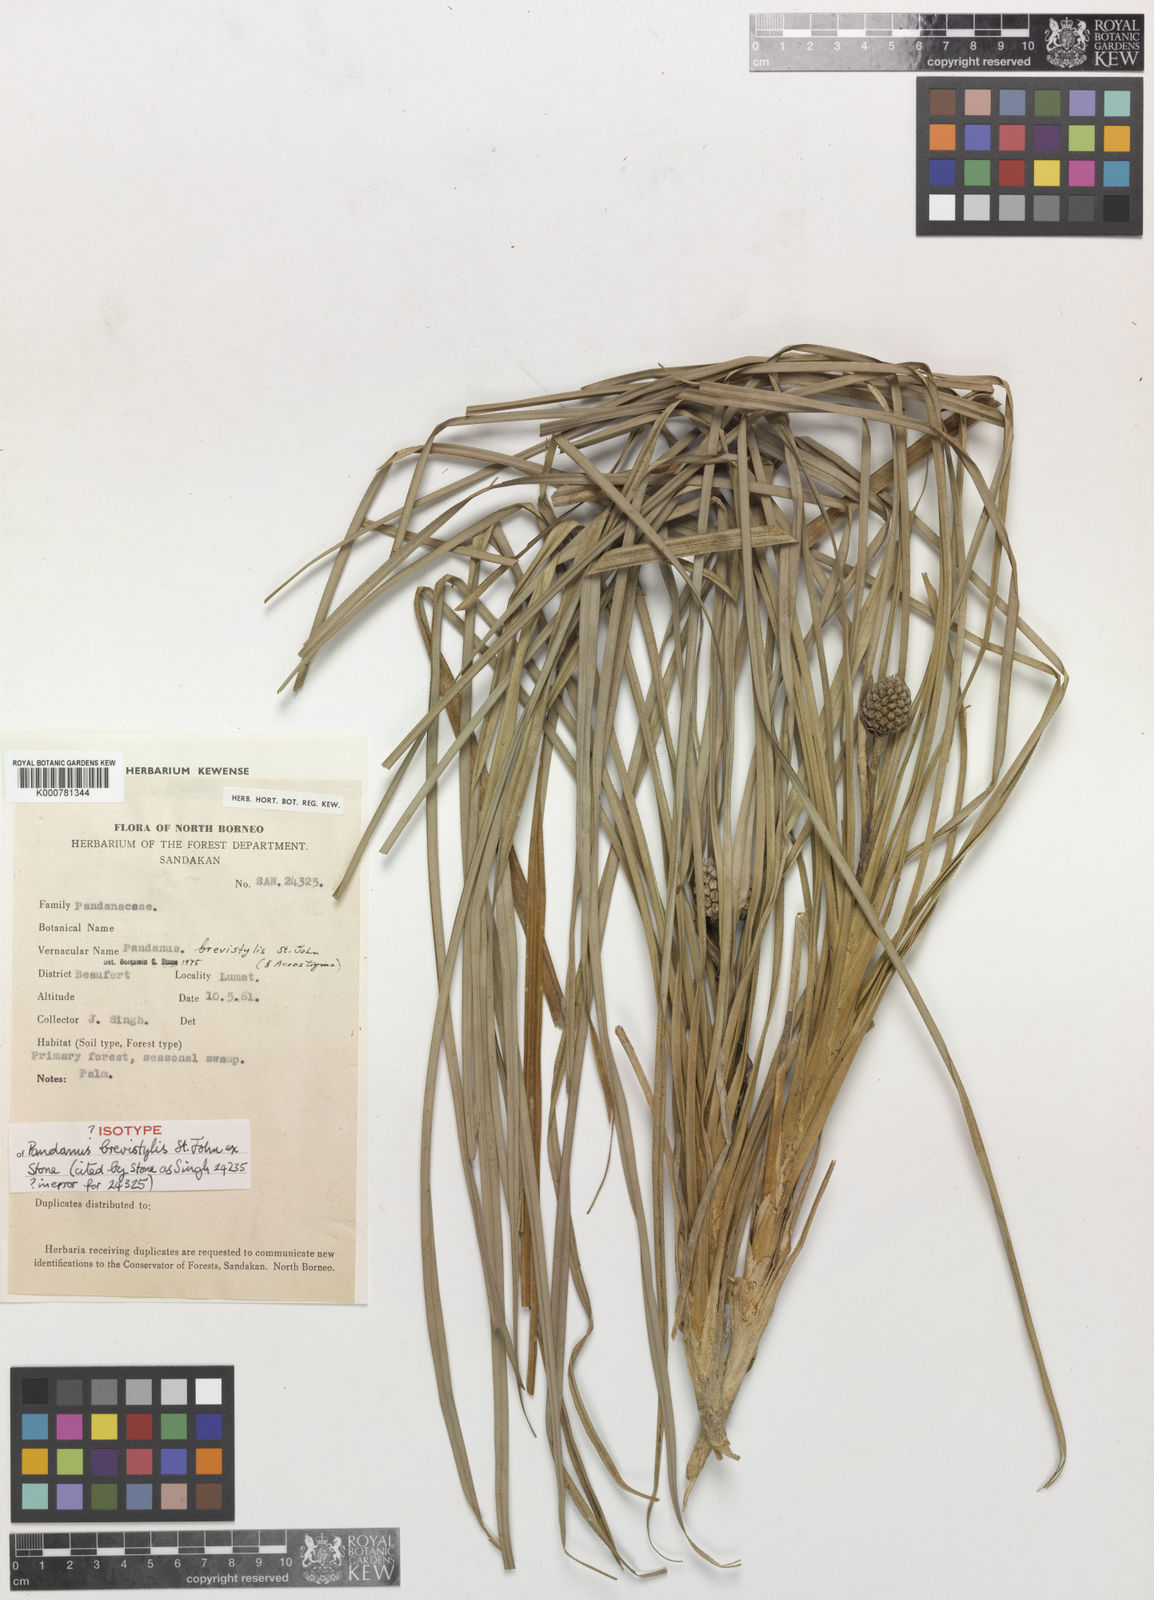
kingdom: Plantae
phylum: Tracheophyta
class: Liliopsida
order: Pandanales
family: Pandanaceae
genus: Benstonea
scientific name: Benstonea brevistylis
